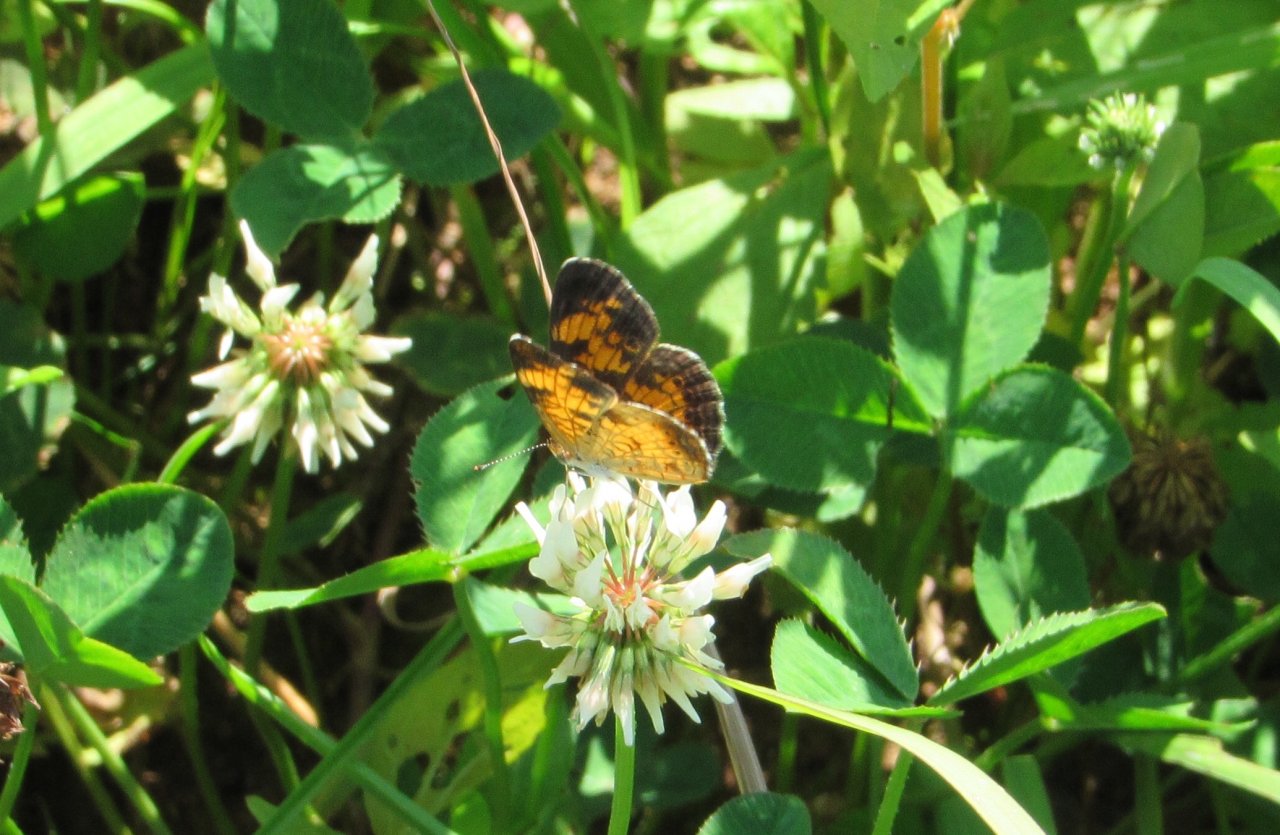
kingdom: Animalia
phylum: Arthropoda
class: Insecta
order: Lepidoptera
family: Nymphalidae
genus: Phyciodes
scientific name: Phyciodes tharos
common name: Pearl Crescent
